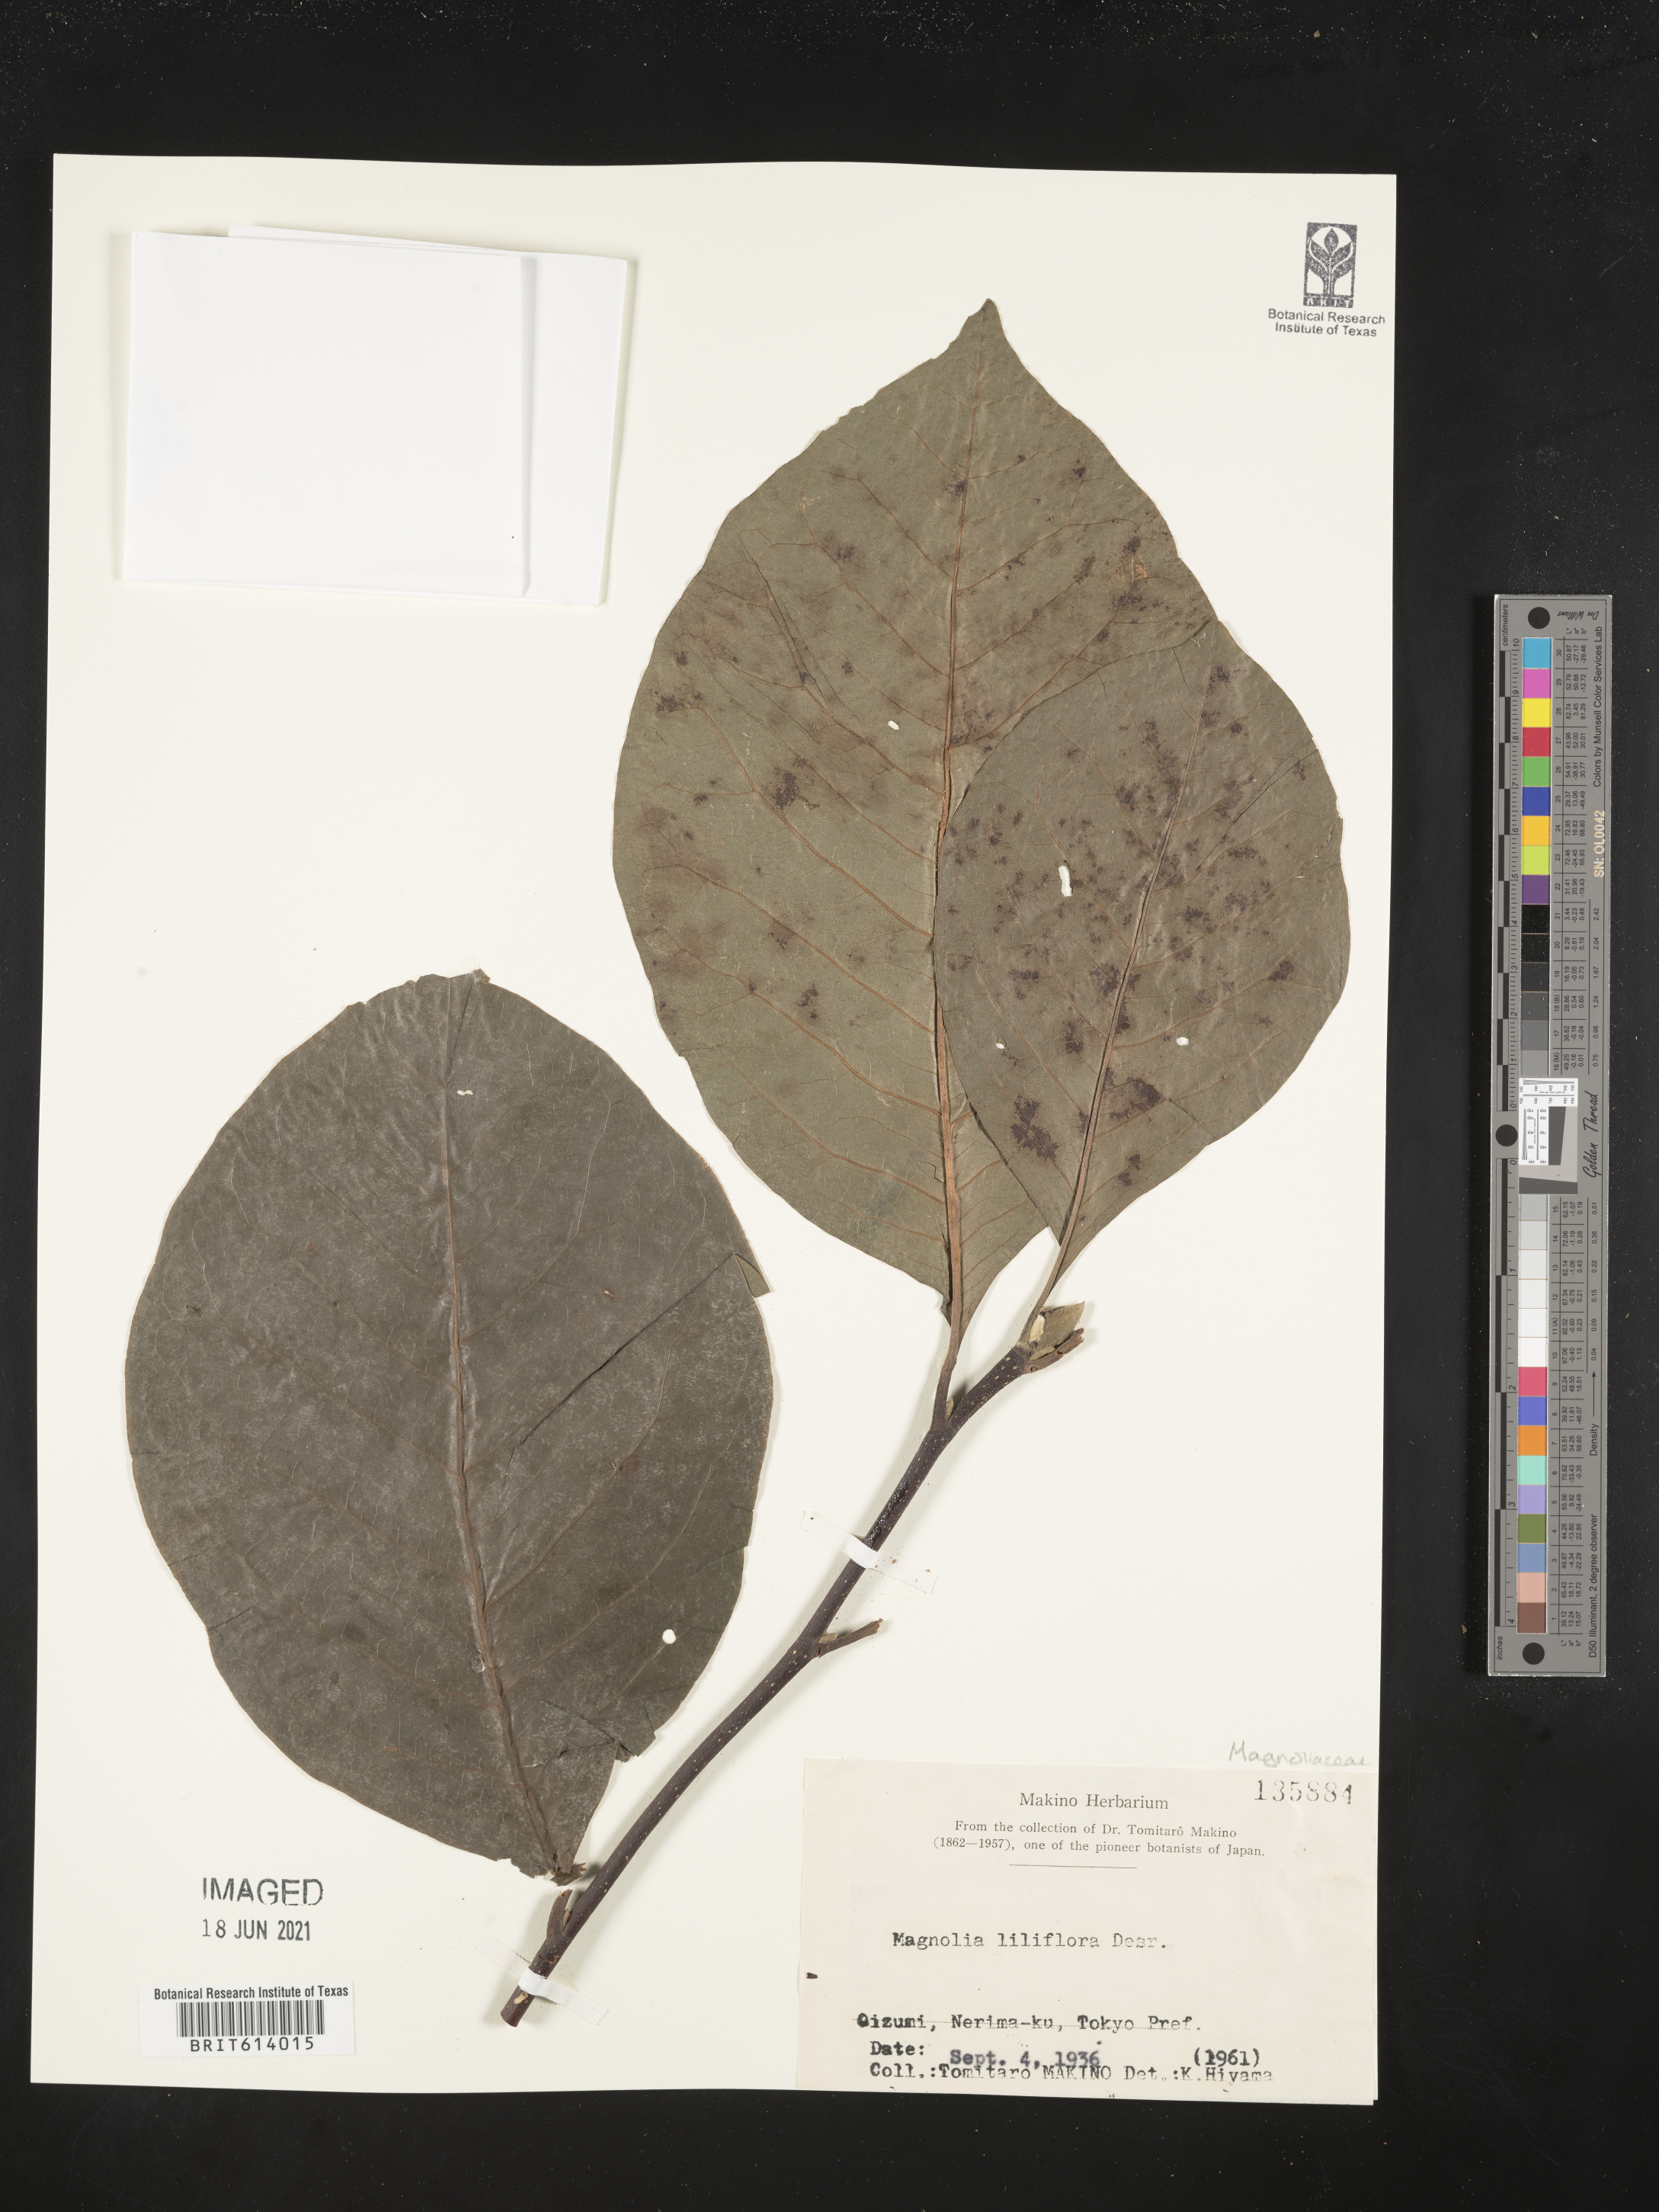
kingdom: Plantae
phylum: Tracheophyta
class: Magnoliopsida
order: Magnoliales
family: Magnoliaceae
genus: Magnolia
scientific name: Magnolia liliiflora
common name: Purple magnolia
